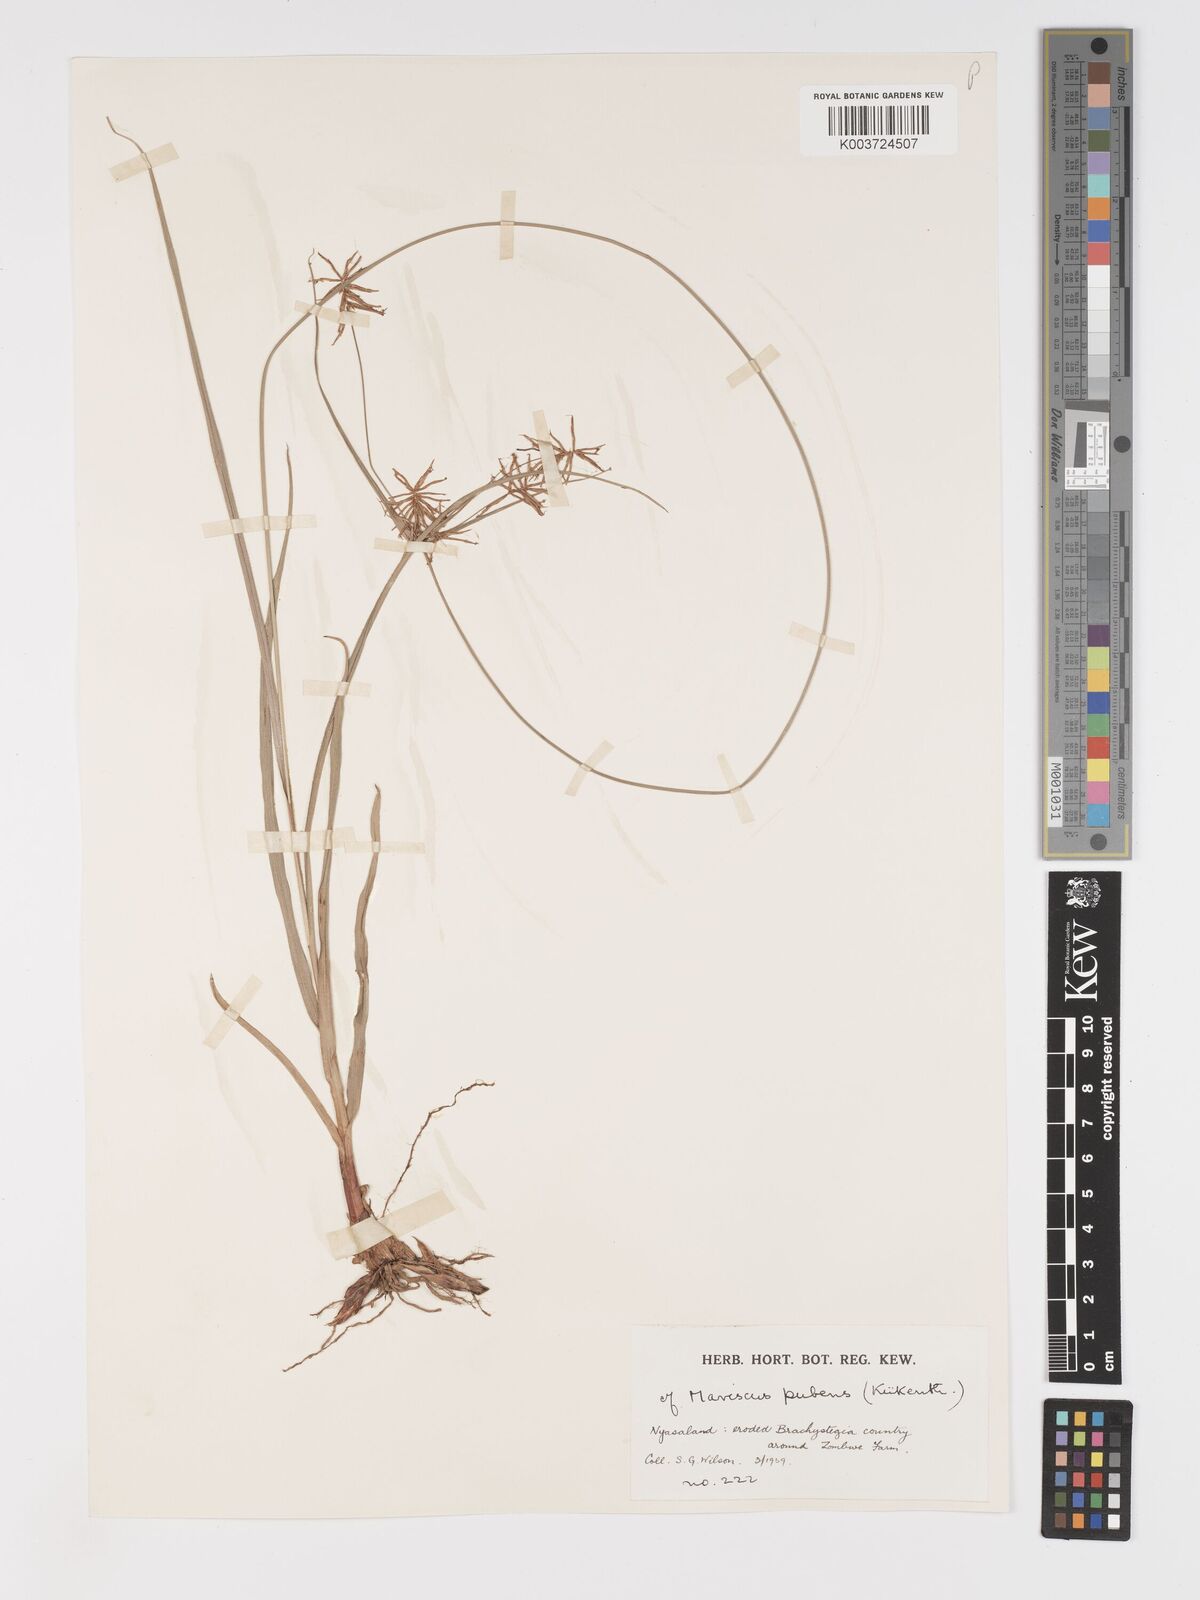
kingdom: Plantae
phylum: Tracheophyta
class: Liliopsida
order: Poales
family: Cyperaceae
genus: Cyperus
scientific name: Cyperus pubens
